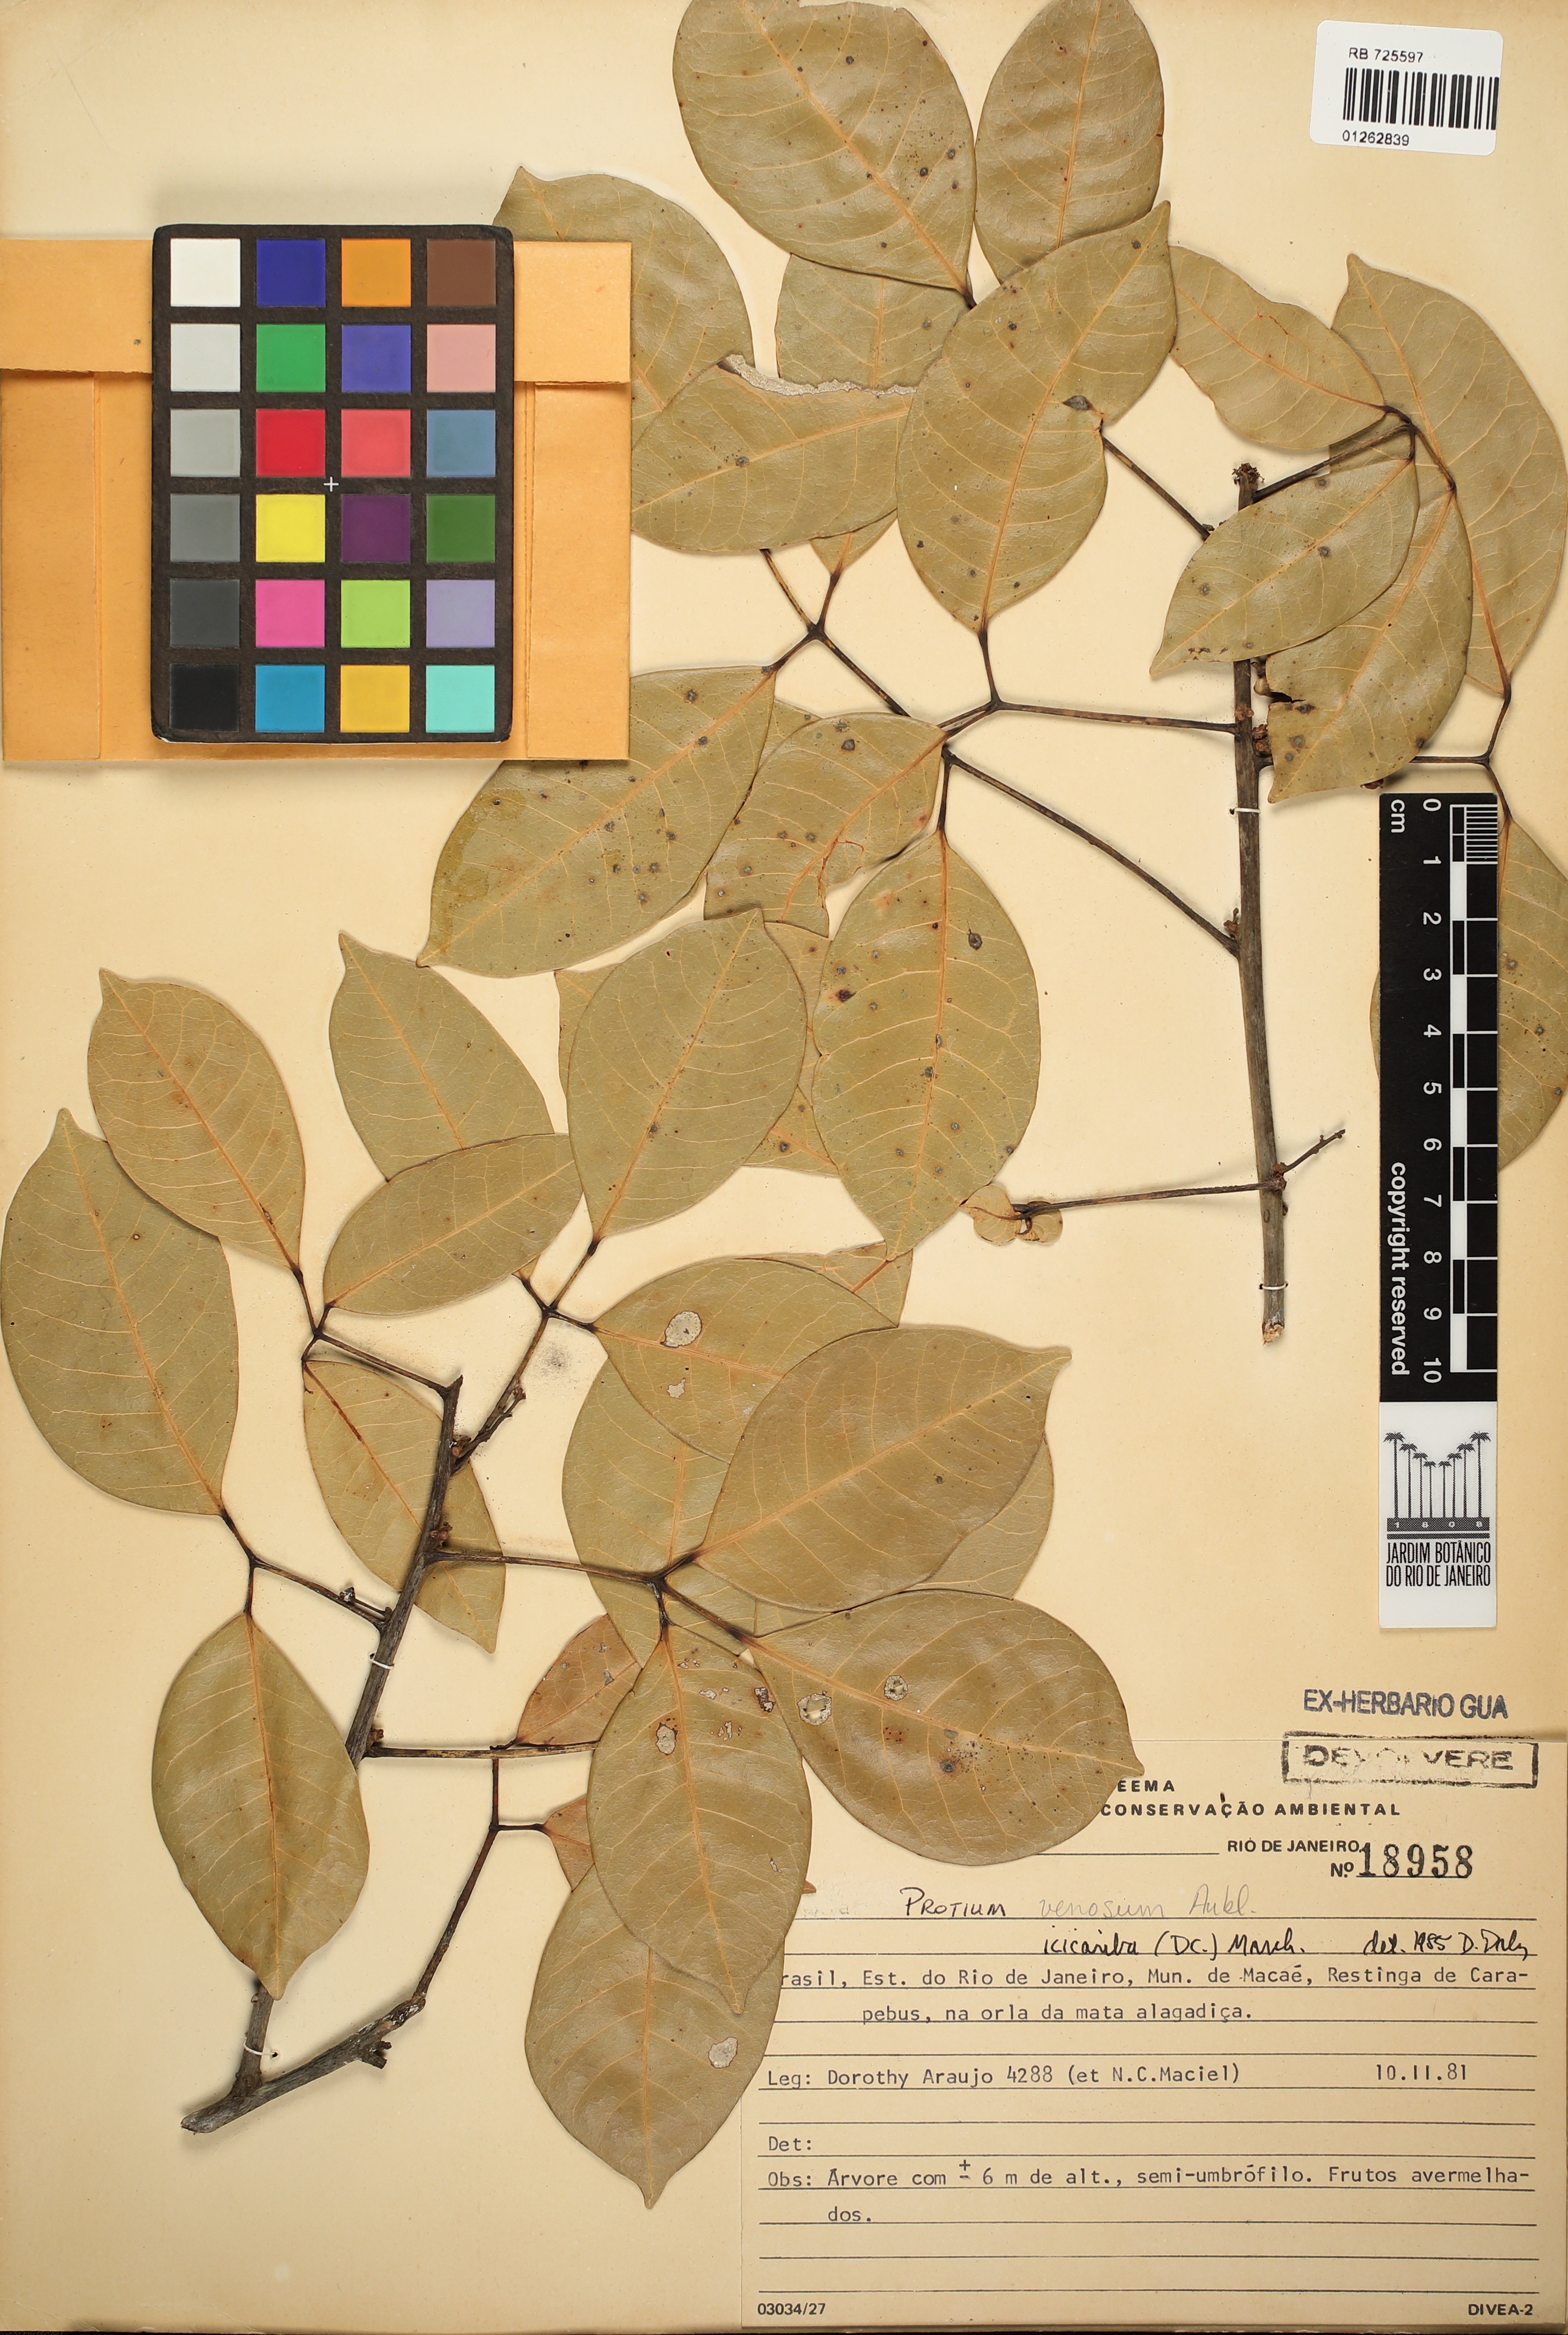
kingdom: Plantae
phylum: Tracheophyta
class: Magnoliopsida
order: Sapindales
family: Burseraceae
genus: Protium
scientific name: Protium icicariba
